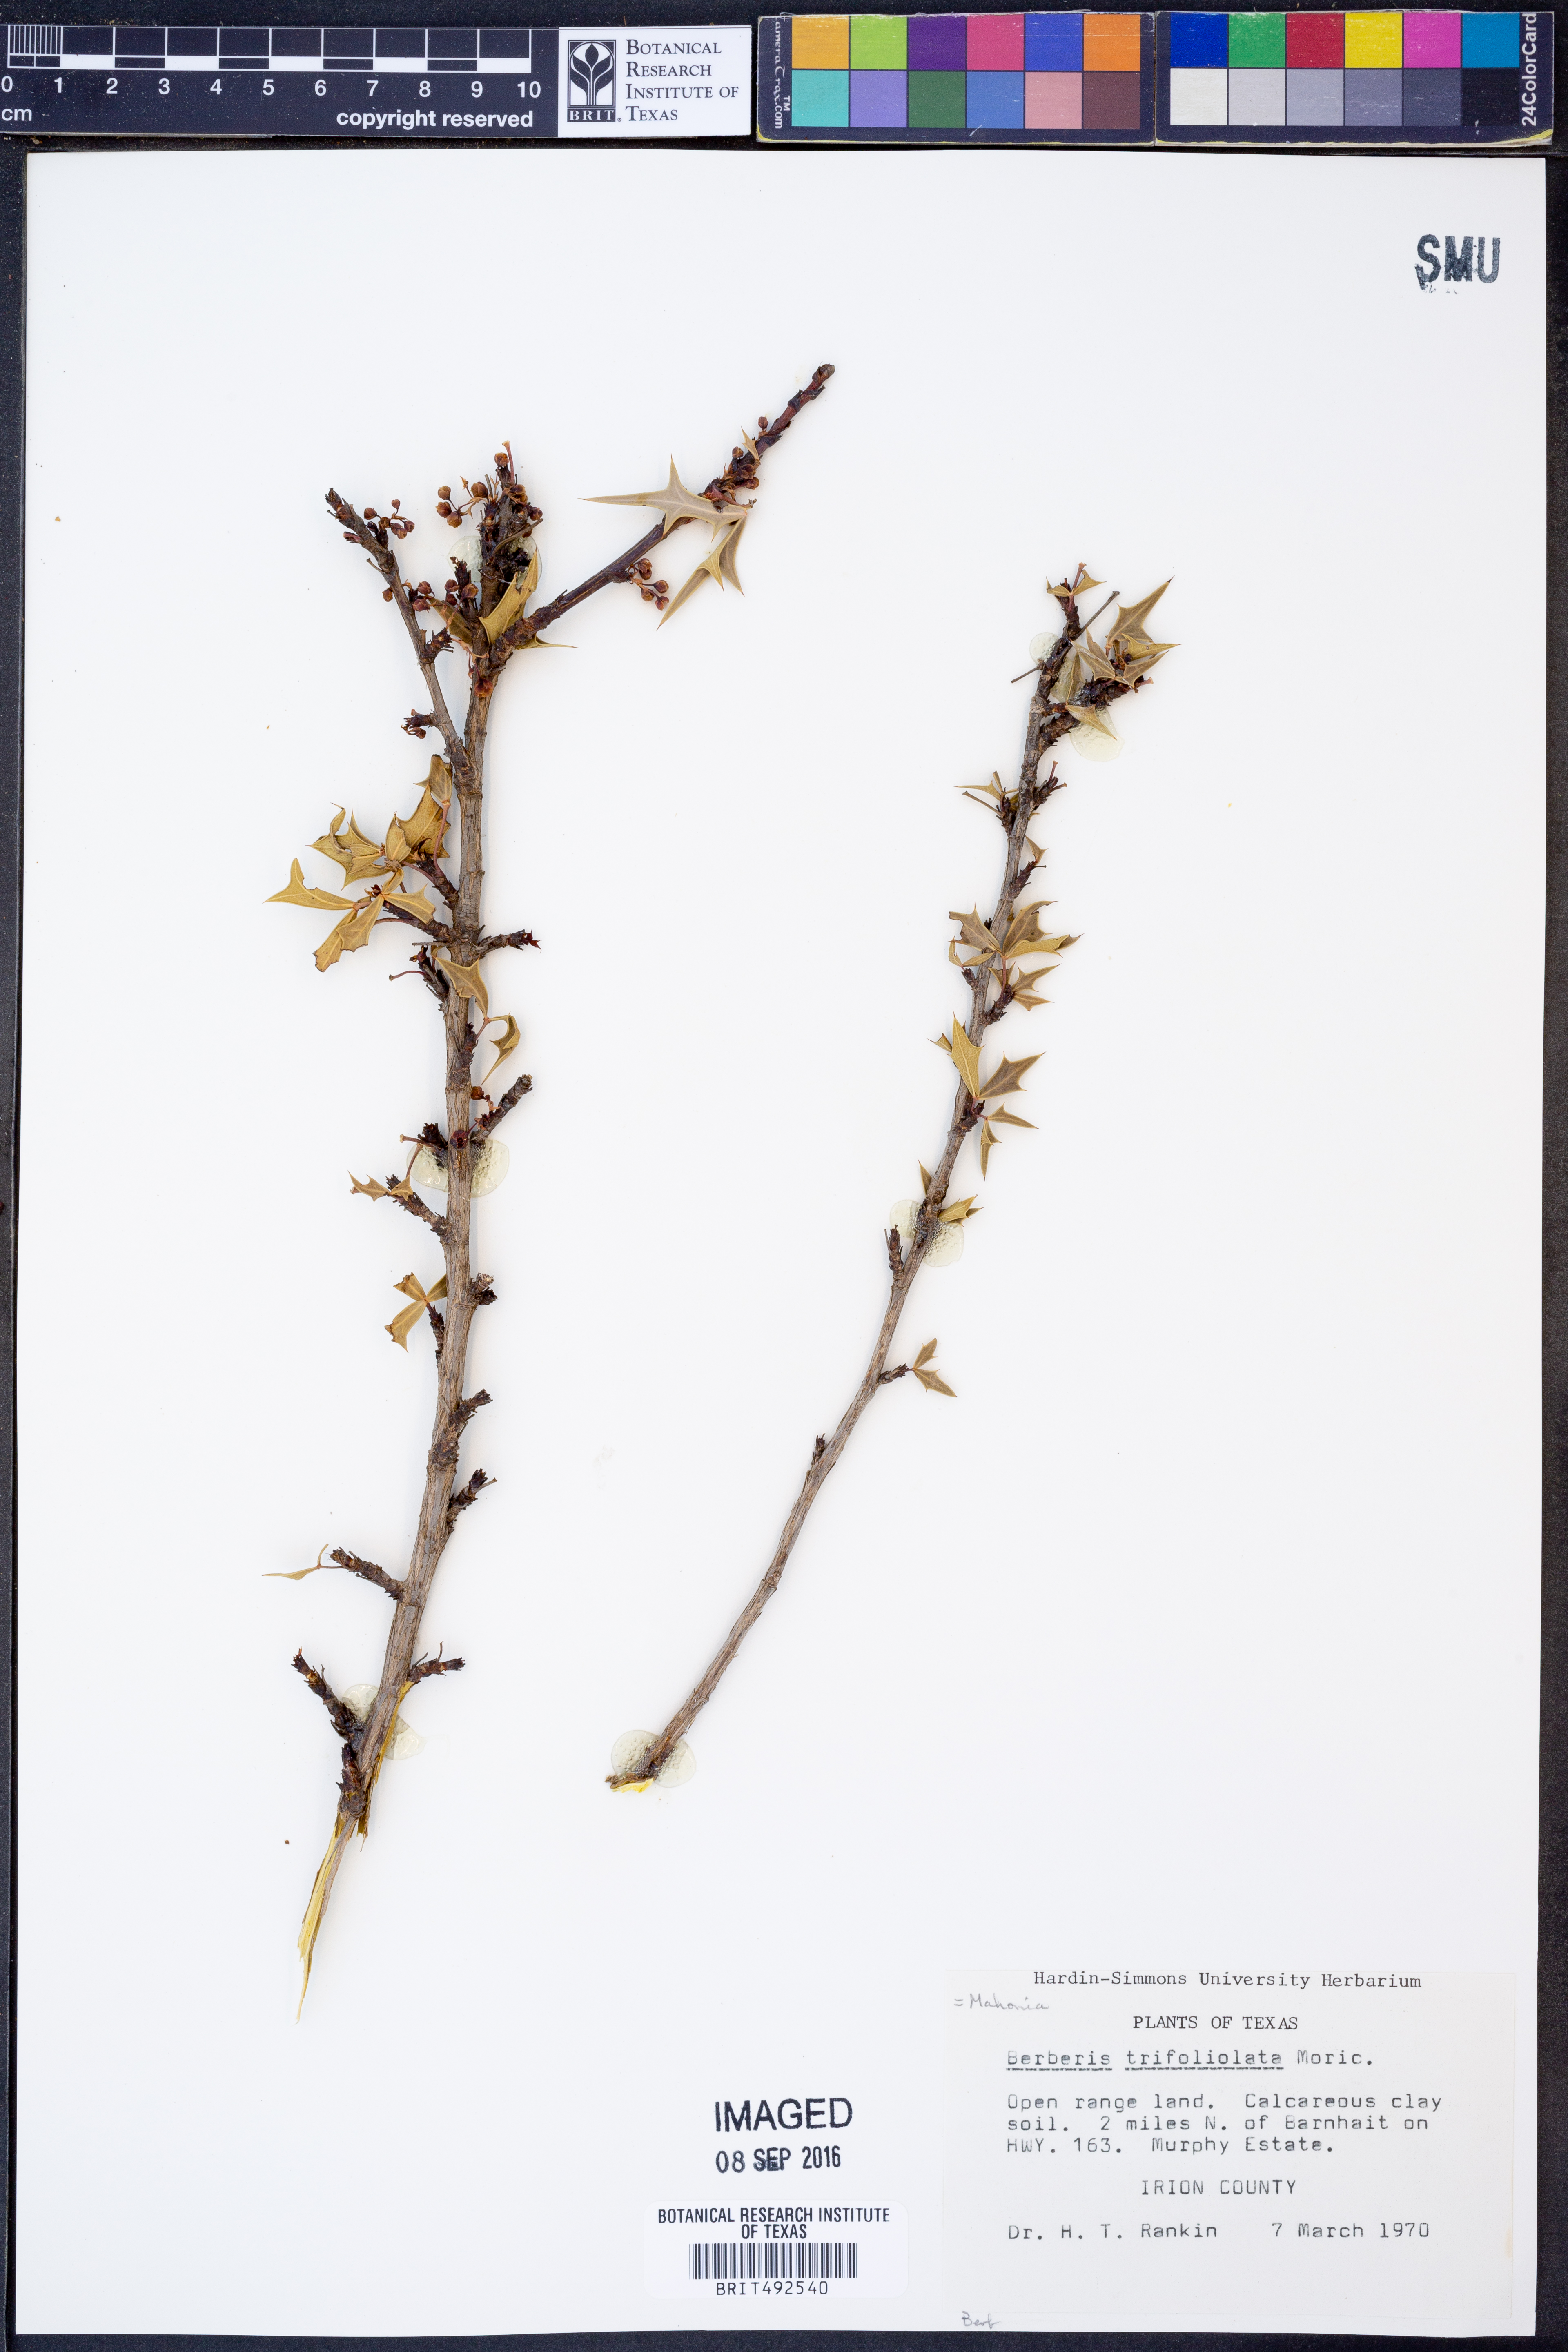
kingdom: Plantae
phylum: Tracheophyta
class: Magnoliopsida
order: Ranunculales
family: Berberidaceae
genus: Alloberberis
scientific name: Alloberberis trifoliolata
